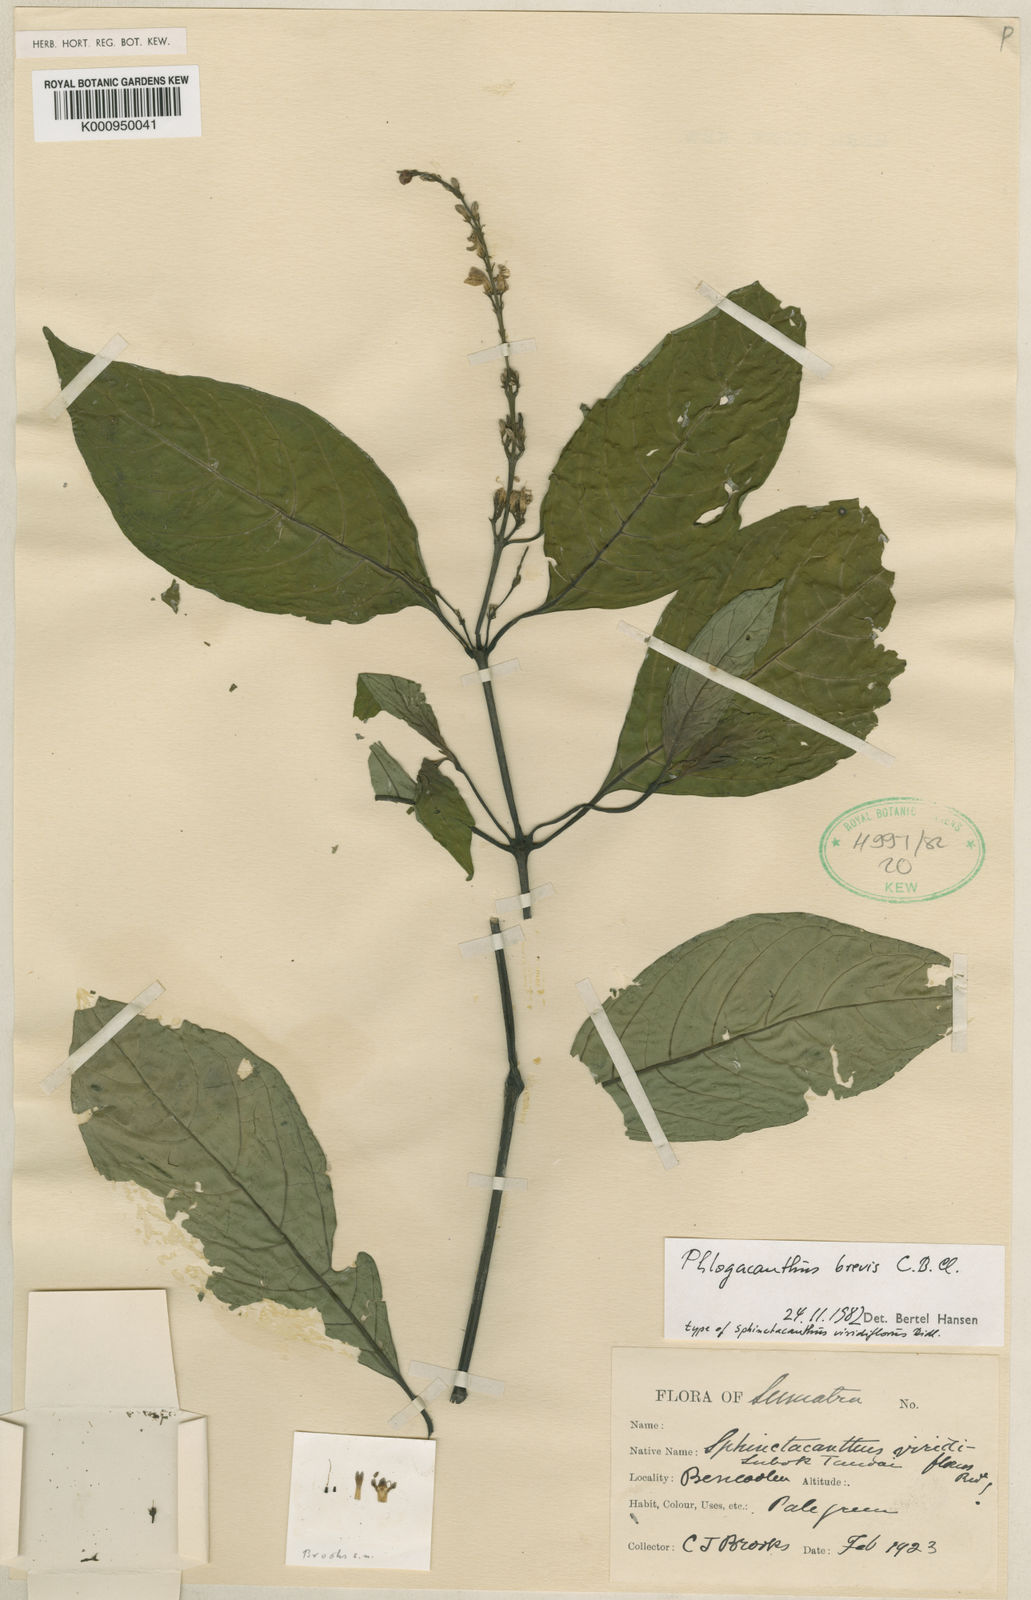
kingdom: Plantae
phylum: Tracheophyta
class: Magnoliopsida
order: Lamiales
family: Acanthaceae
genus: Phlogacanthus
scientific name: Phlogacanthus brevis
